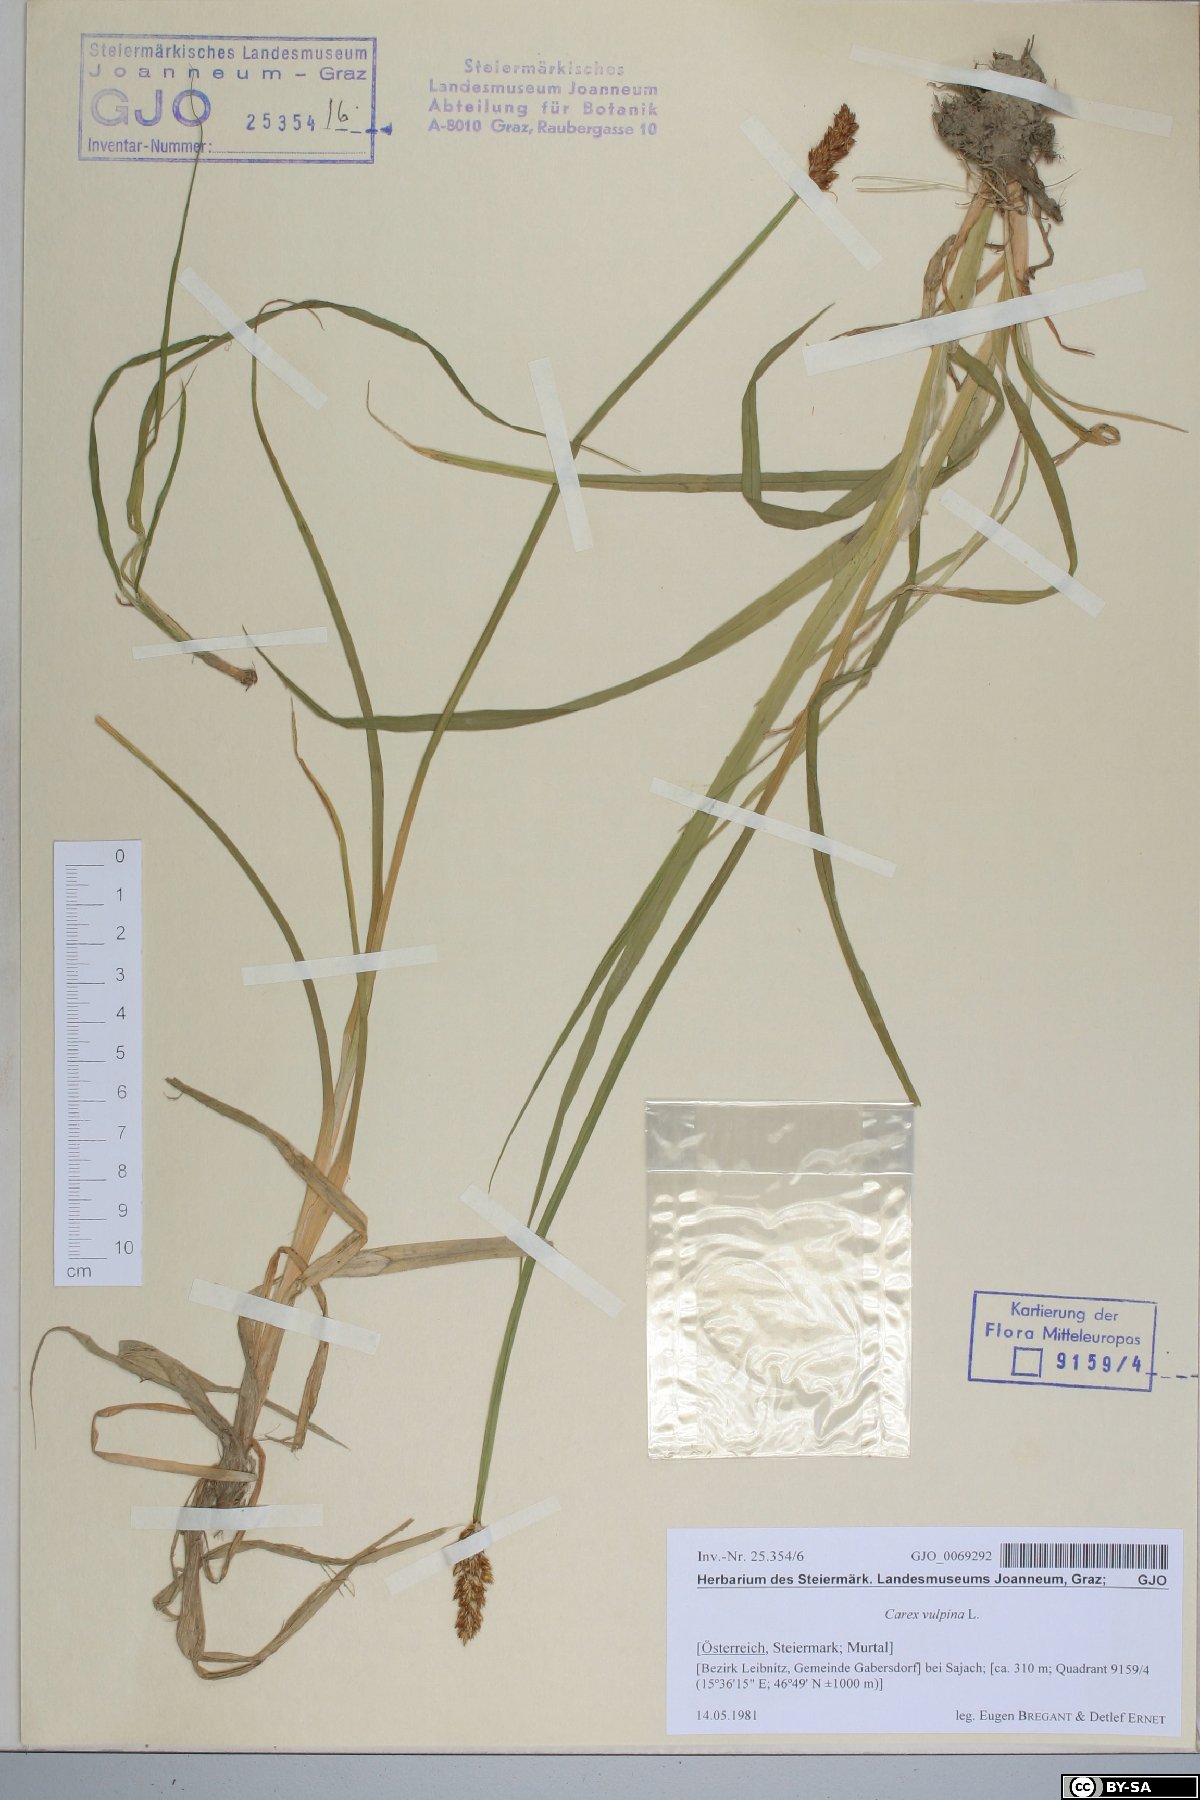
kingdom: Plantae
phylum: Tracheophyta
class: Liliopsida
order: Poales
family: Cyperaceae
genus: Carex
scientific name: Carex vulpina
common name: True fox-sedge
